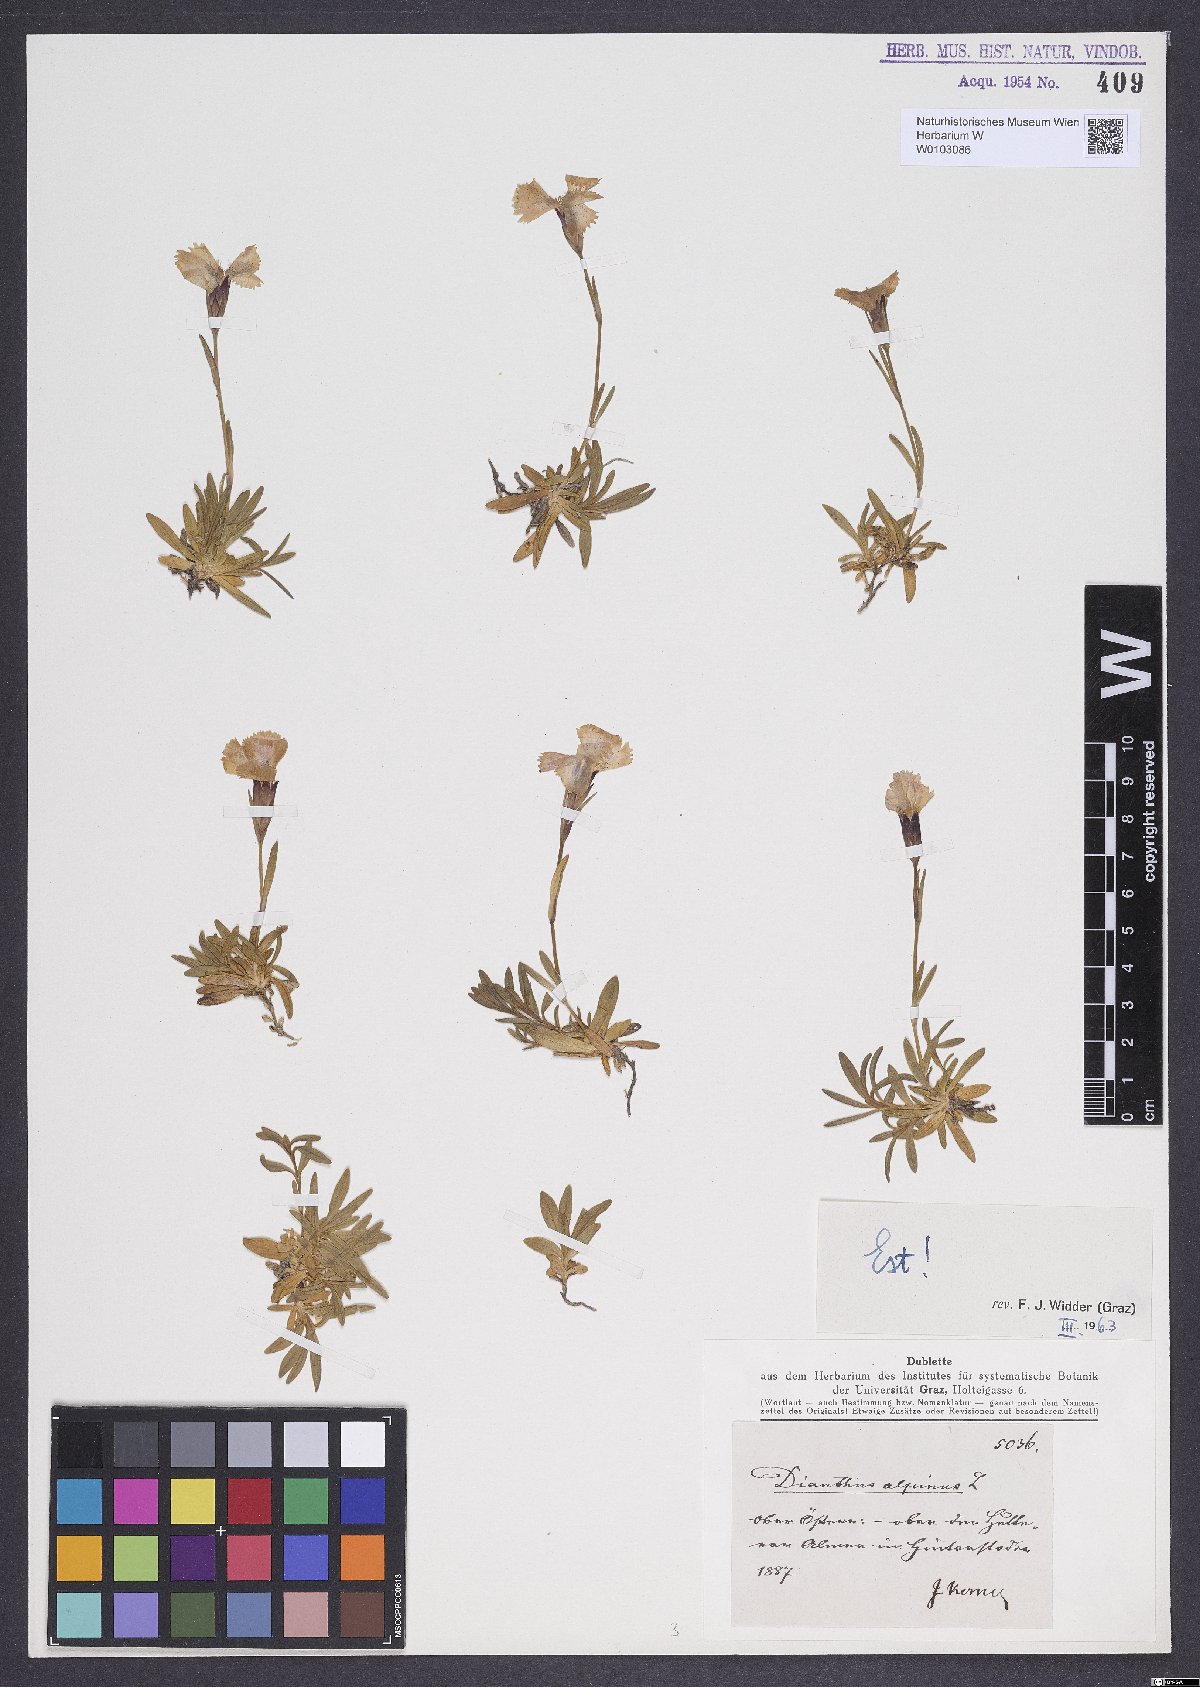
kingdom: Plantae
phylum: Tracheophyta
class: Magnoliopsida
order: Caryophyllales
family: Caryophyllaceae
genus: Dianthus
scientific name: Dianthus alpinus
